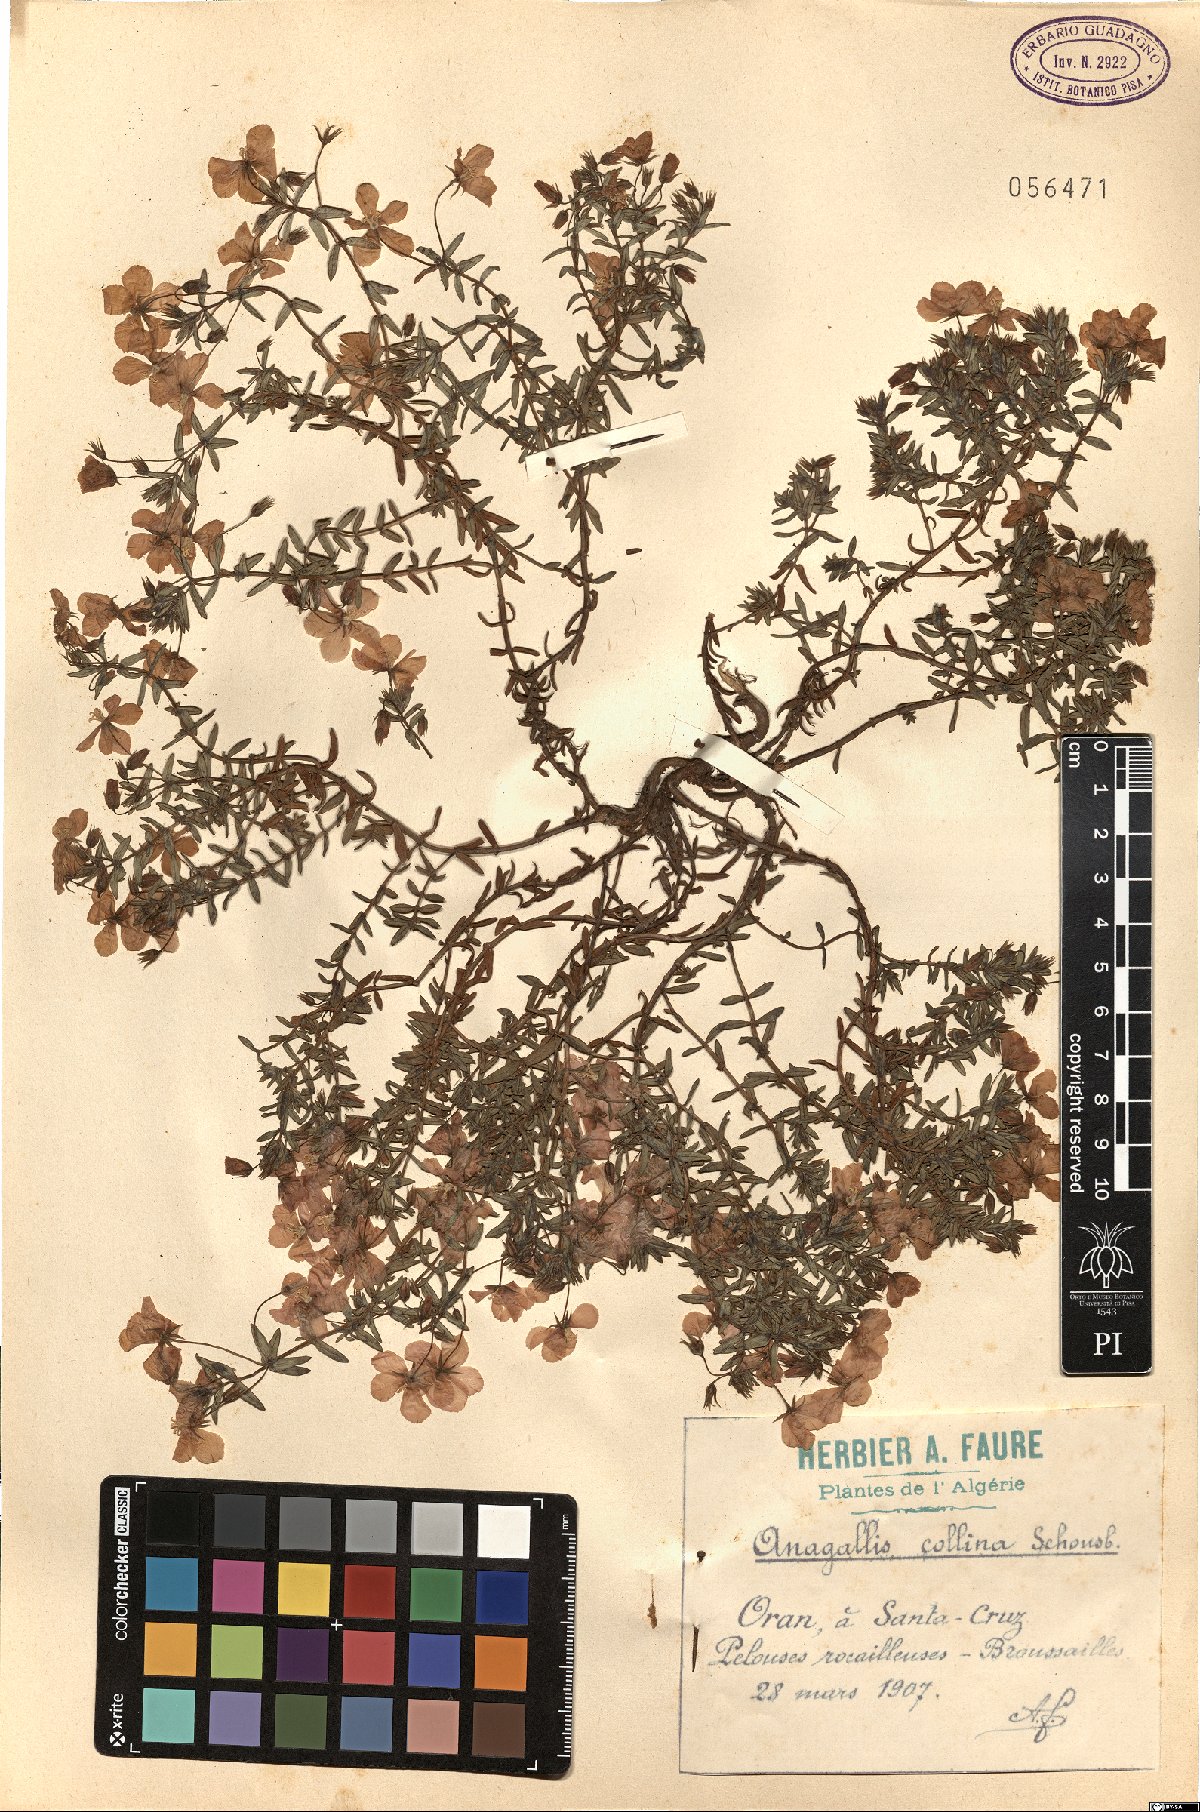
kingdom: Plantae
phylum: Tracheophyta
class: Magnoliopsida
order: Ericales
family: Primulaceae
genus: Lysimachia
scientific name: Lysimachia collina
